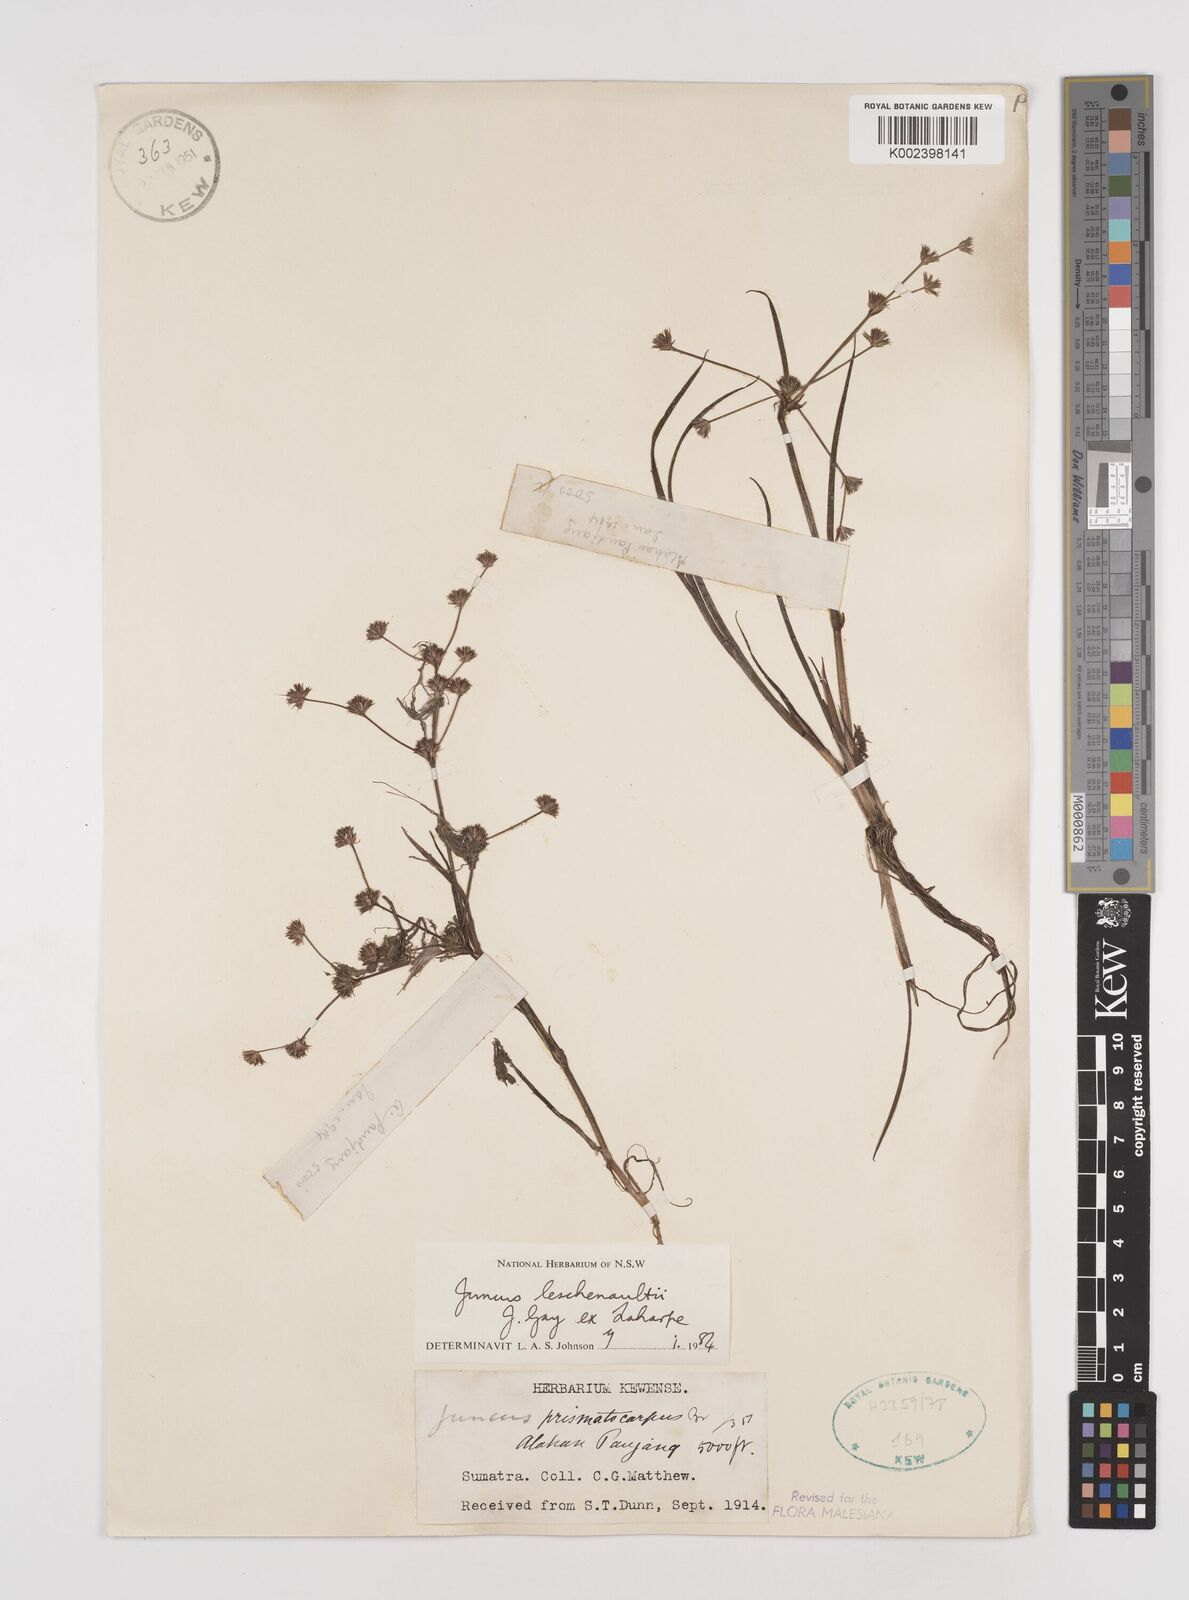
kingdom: Plantae
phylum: Tracheophyta
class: Liliopsida
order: Poales
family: Juncaceae
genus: Juncus
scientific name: Juncus prismatocarpus
